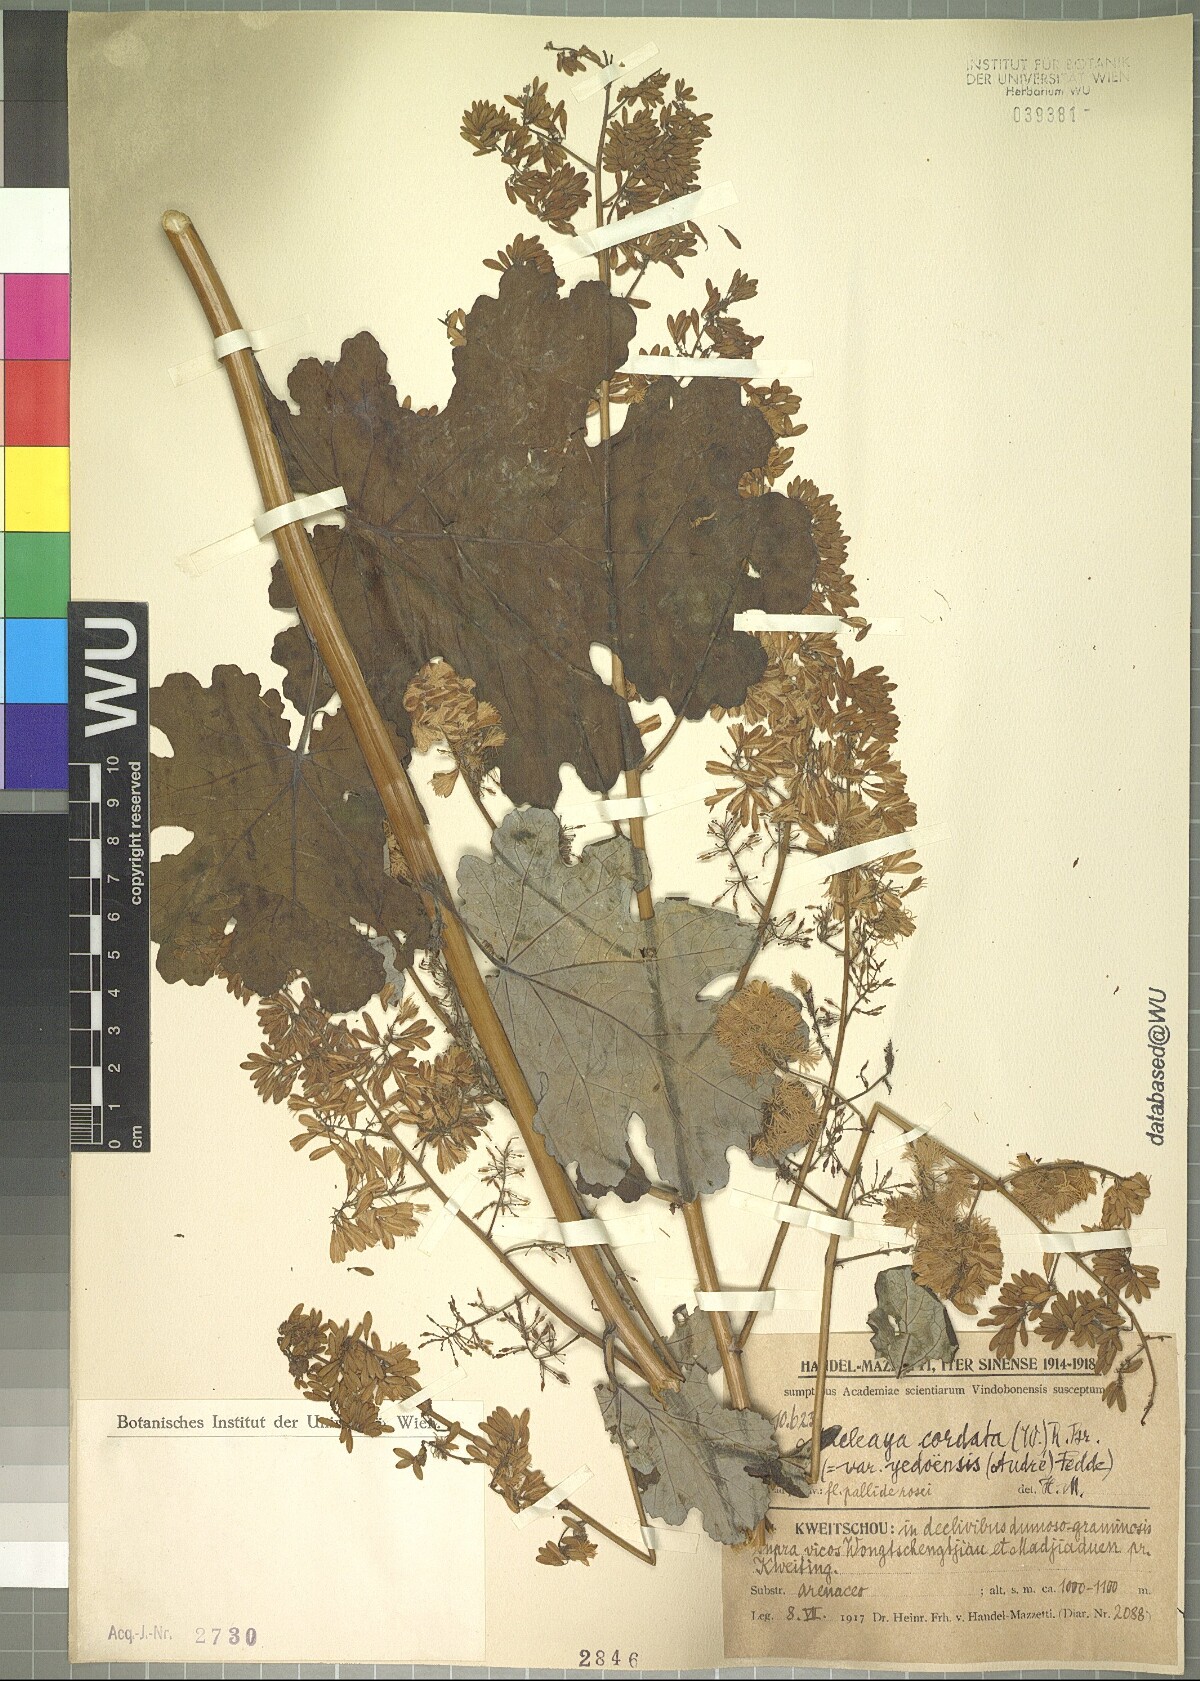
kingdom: Plantae
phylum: Tracheophyta
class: Magnoliopsida
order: Ranunculales
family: Papaveraceae
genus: Macleaya
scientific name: Macleaya cordata
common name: Plume poppy
